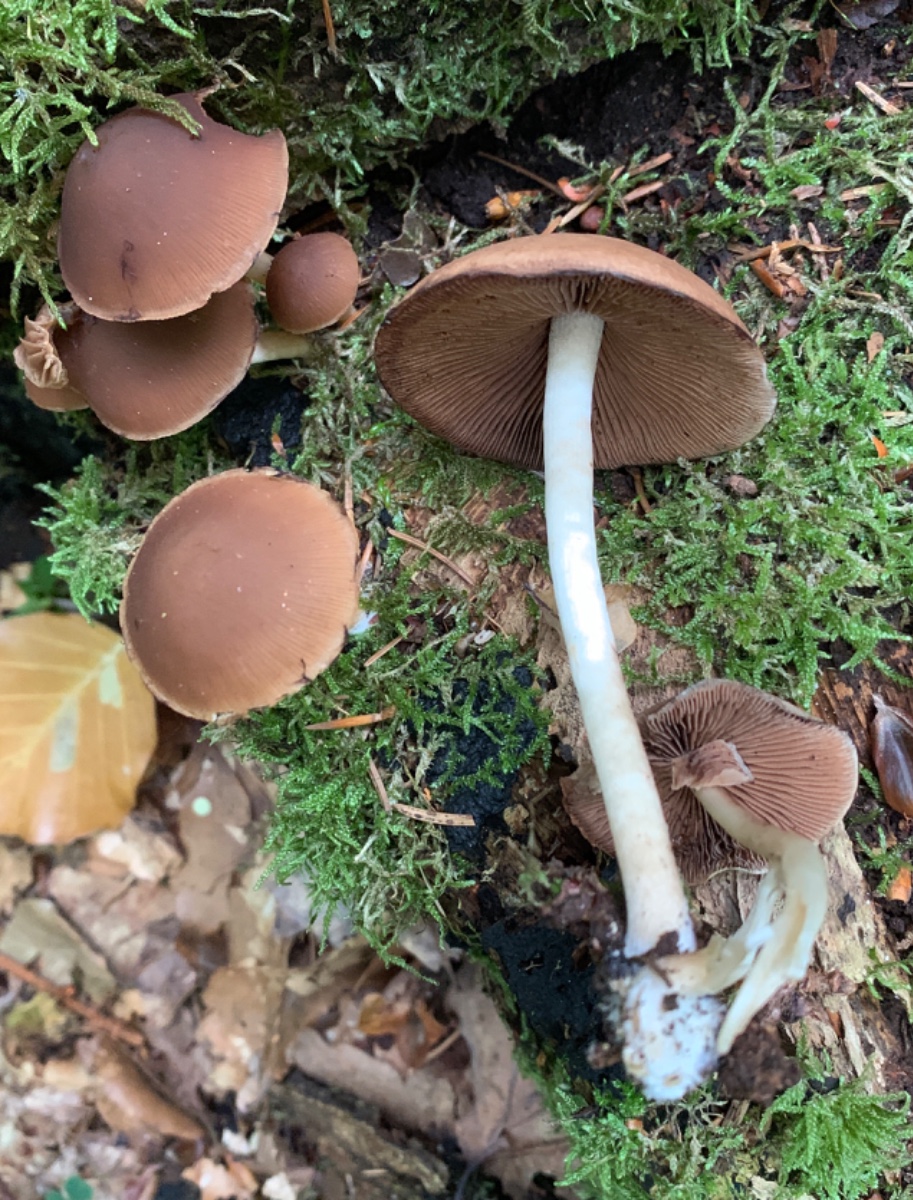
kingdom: Fungi
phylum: Basidiomycota
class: Agaricomycetes
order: Agaricales
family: Psathyrellaceae
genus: Psathyrella
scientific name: Psathyrella piluliformis
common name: lysstokket mørkhat
